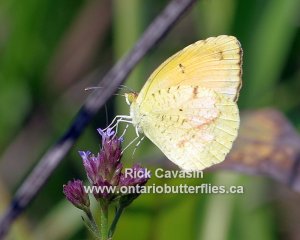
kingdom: Animalia
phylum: Arthropoda
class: Insecta
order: Lepidoptera
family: Pieridae
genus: Abaeis
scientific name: Abaeis nicippe
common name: Sleepy Orange
